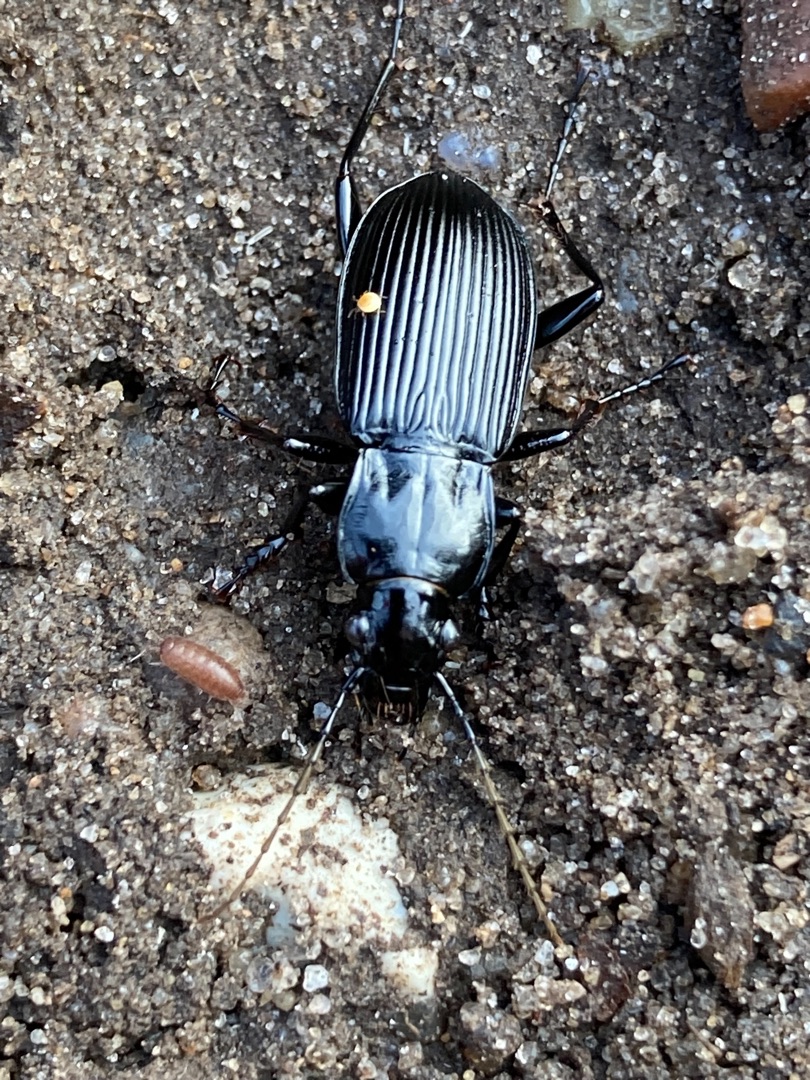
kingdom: Animalia
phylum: Arthropoda
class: Insecta
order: Coleoptera
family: Carabidae
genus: Pterostichus
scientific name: Pterostichus niger
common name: Skovjordløber
